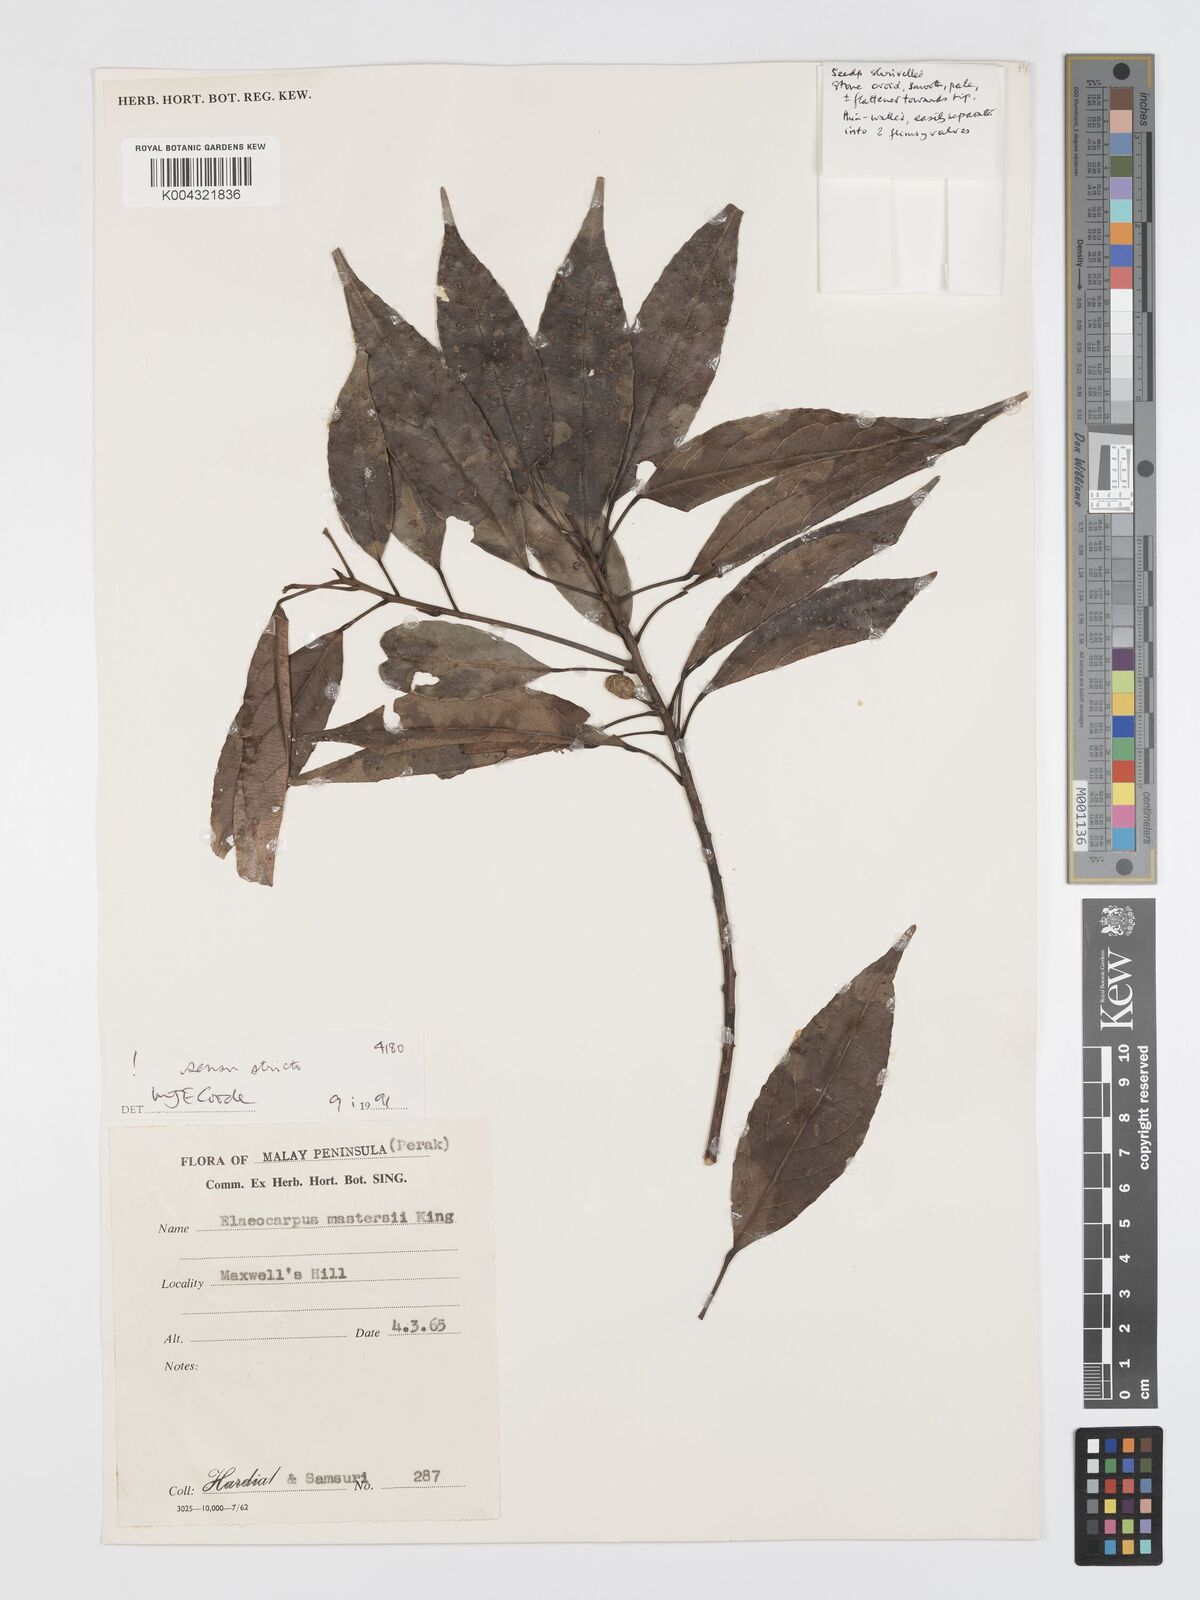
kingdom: Plantae
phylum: Tracheophyta
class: Magnoliopsida
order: Oxalidales
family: Elaeocarpaceae
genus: Elaeocarpus
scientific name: Elaeocarpus mastersii
